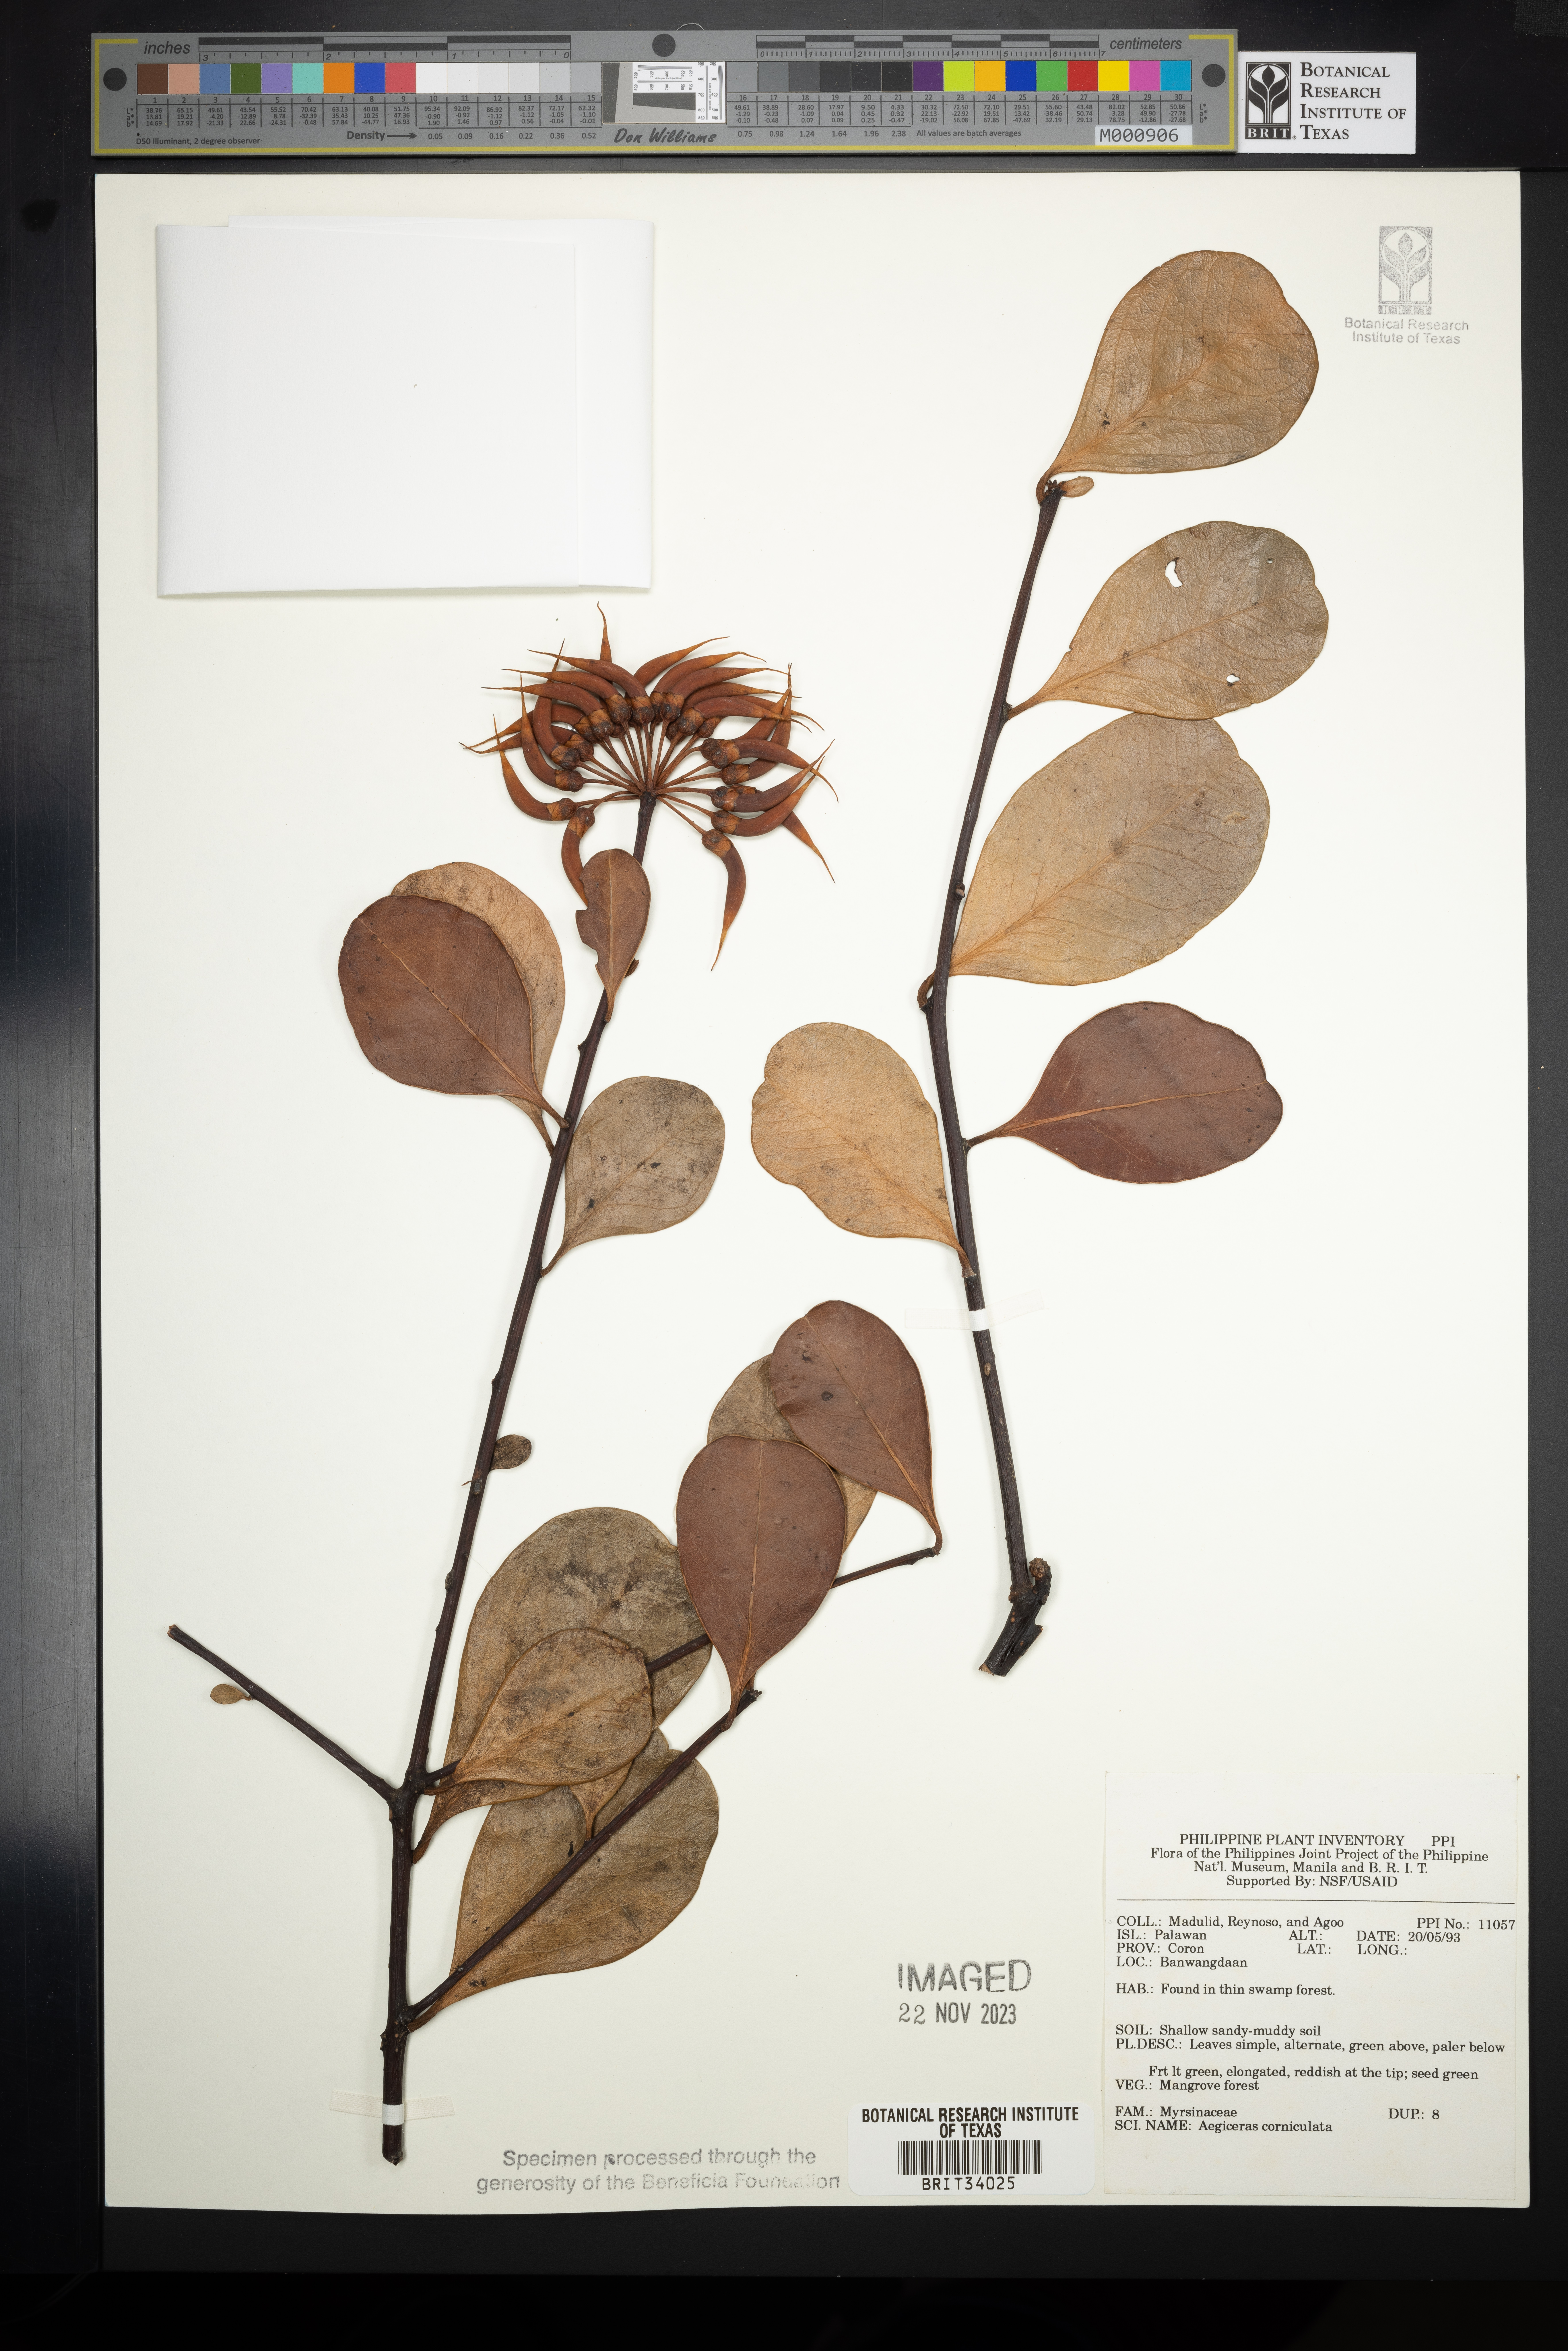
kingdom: Plantae
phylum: Tracheophyta
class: Magnoliopsida
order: Ericales
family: Primulaceae
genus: Aegiceras
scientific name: Aegiceras corniculatum
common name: River mangrove
